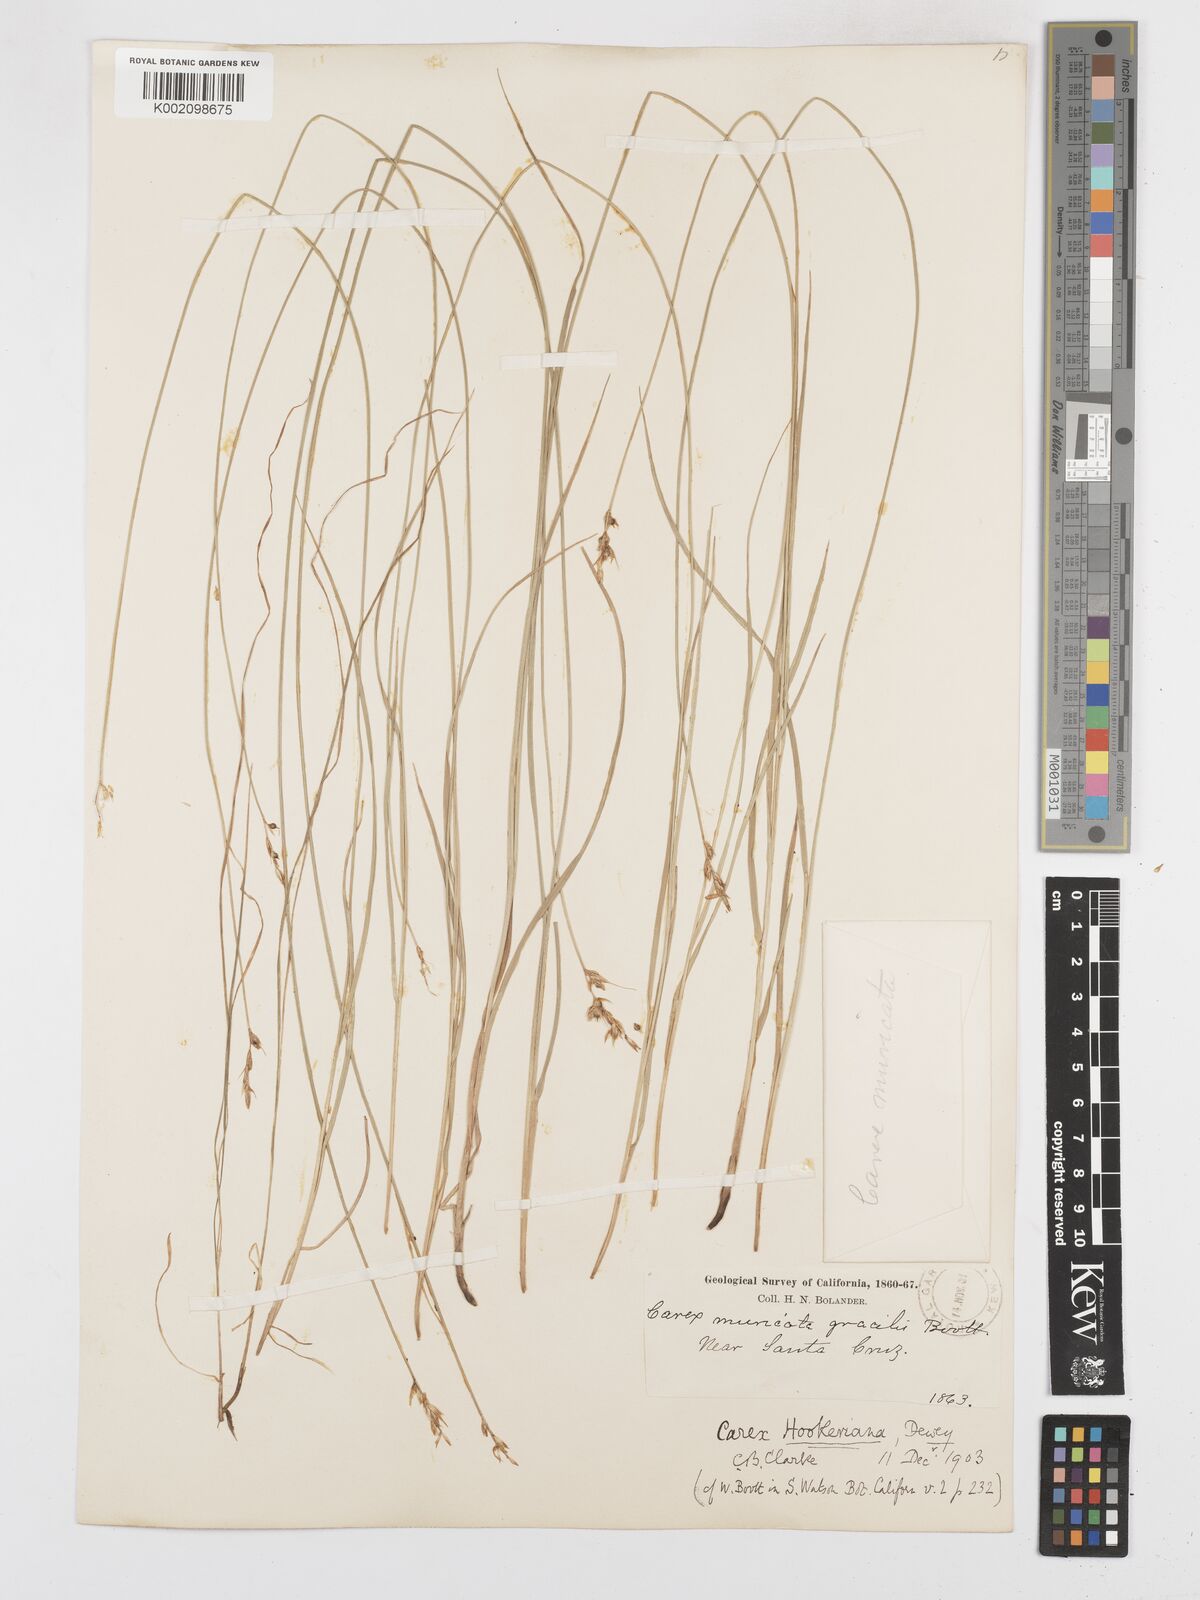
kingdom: Plantae
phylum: Tracheophyta
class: Liliopsida
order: Poales
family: Cyperaceae
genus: Carex
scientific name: Carex tumulicola
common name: Splitawn sedge
